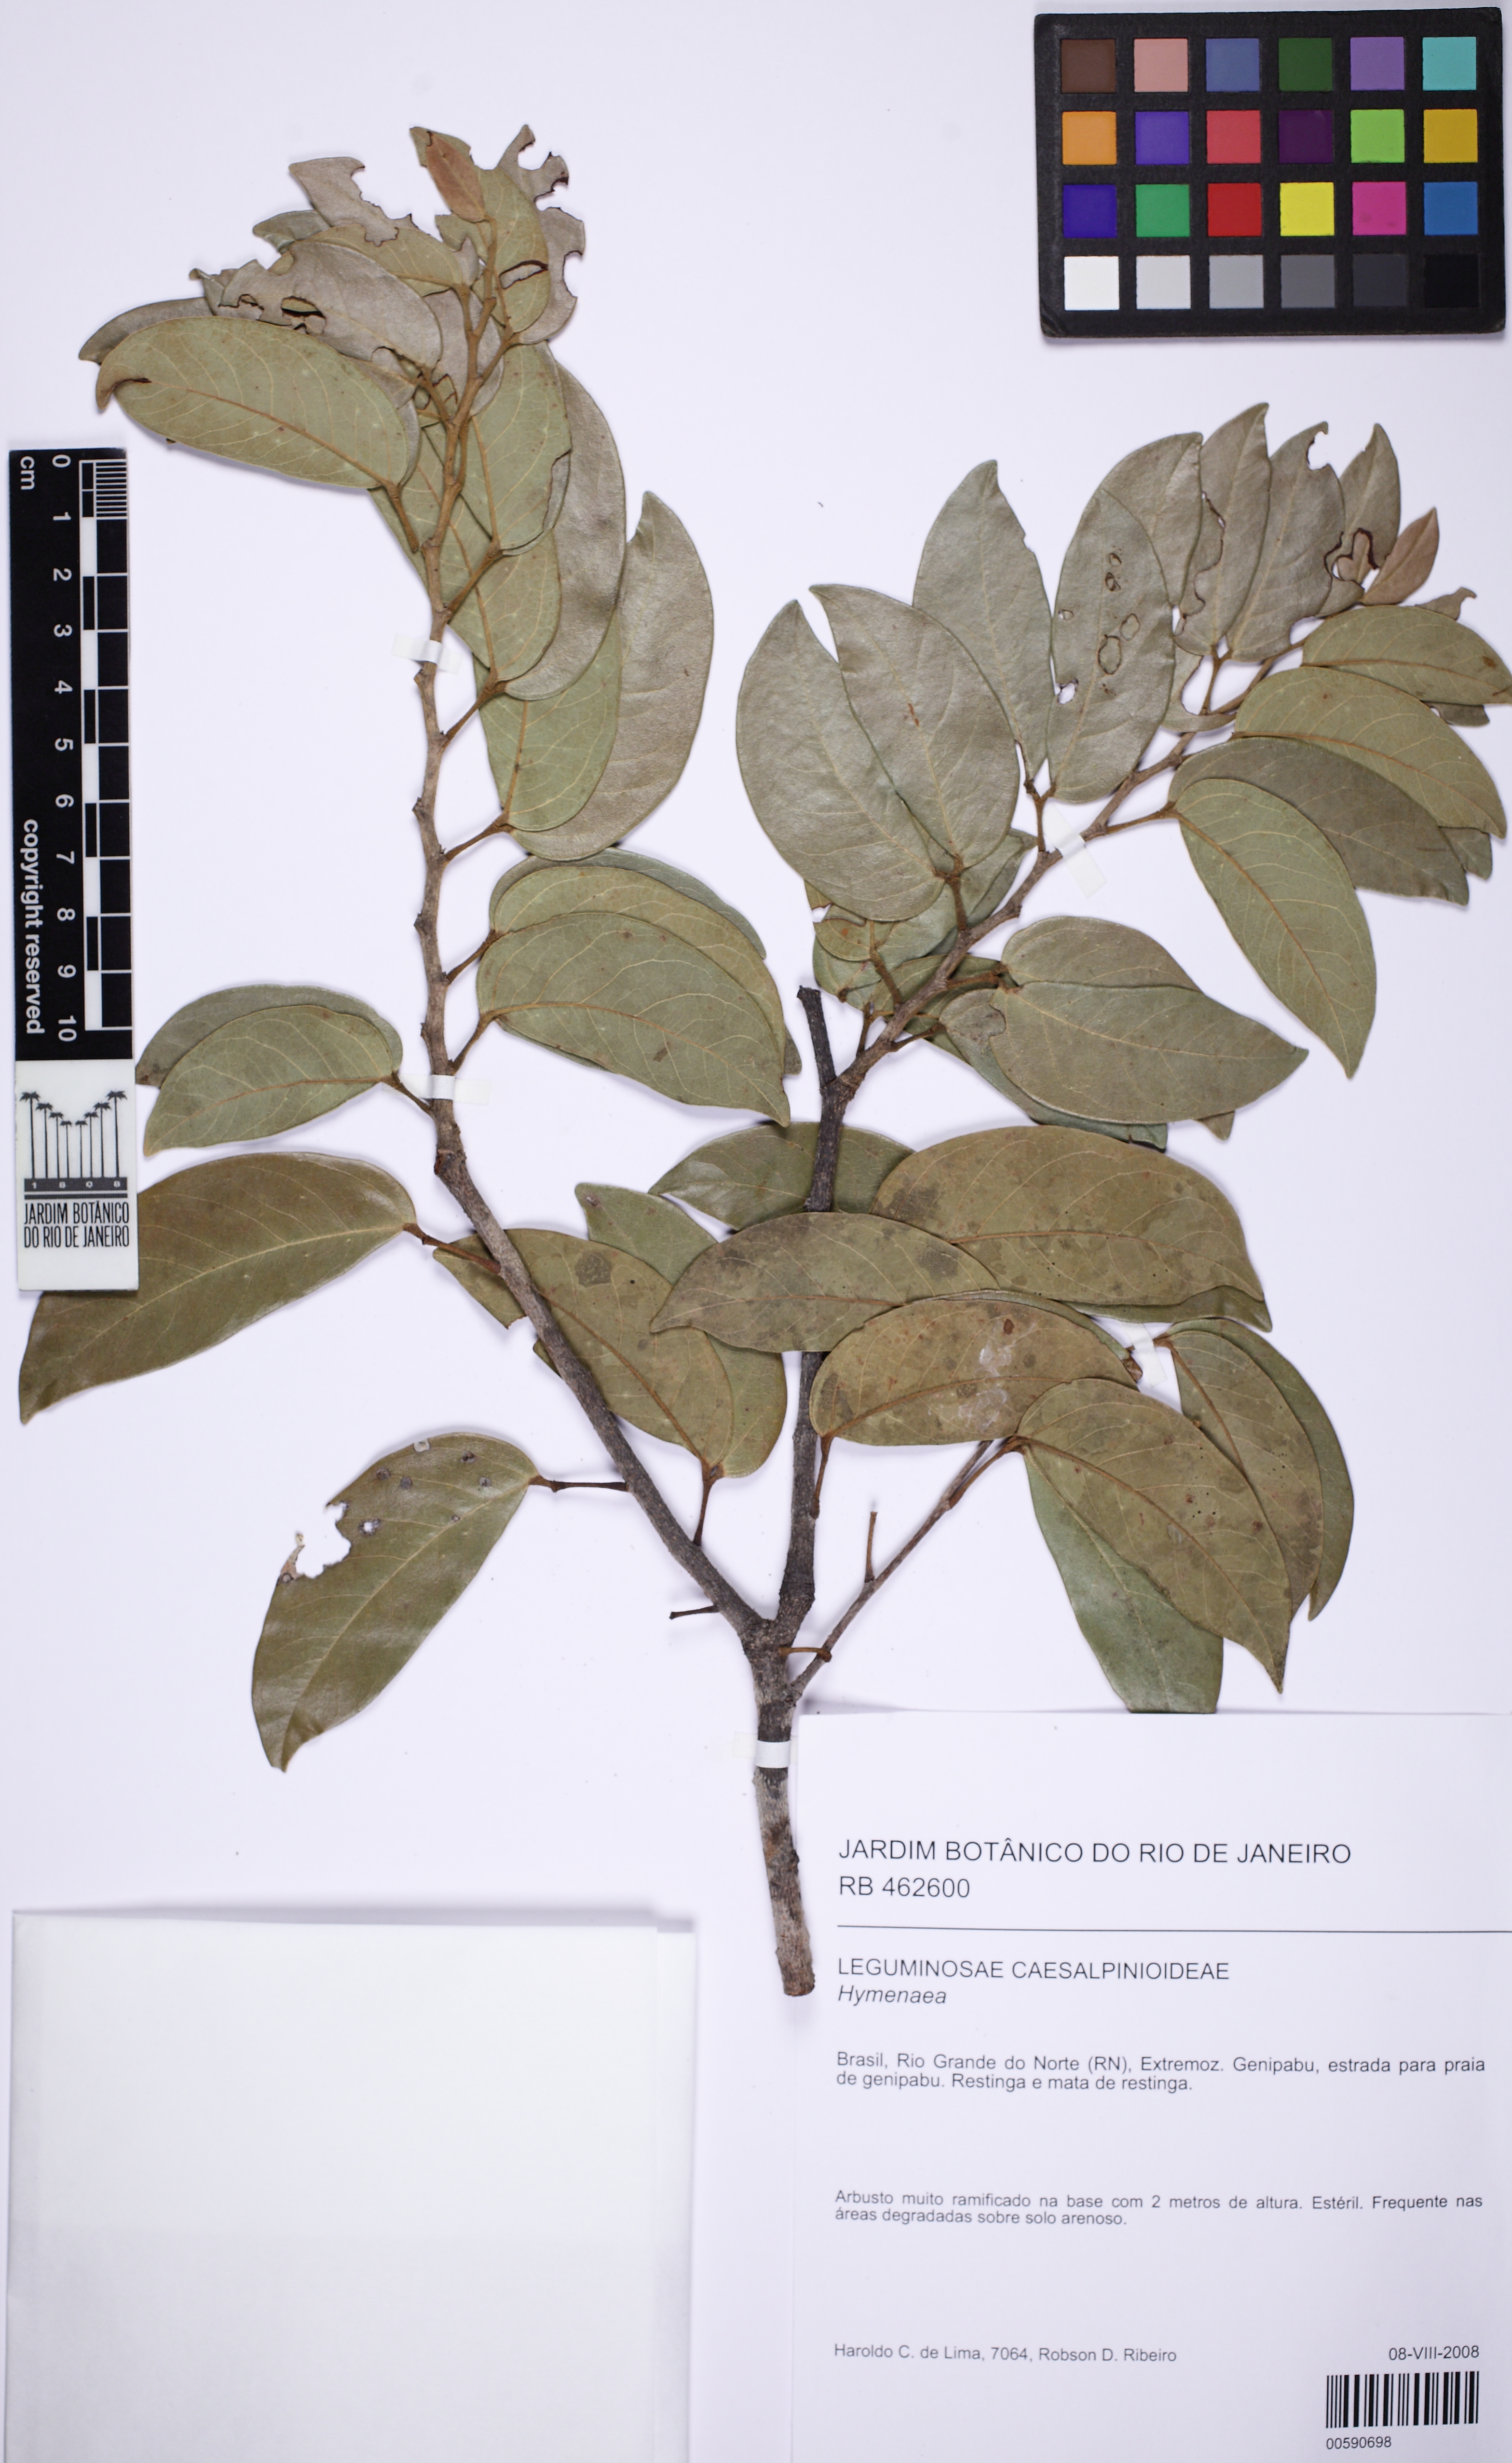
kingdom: Plantae
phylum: Tracheophyta
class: Magnoliopsida
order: Fabales
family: Fabaceae
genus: Hymenaea
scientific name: Hymenaea rubriflora
